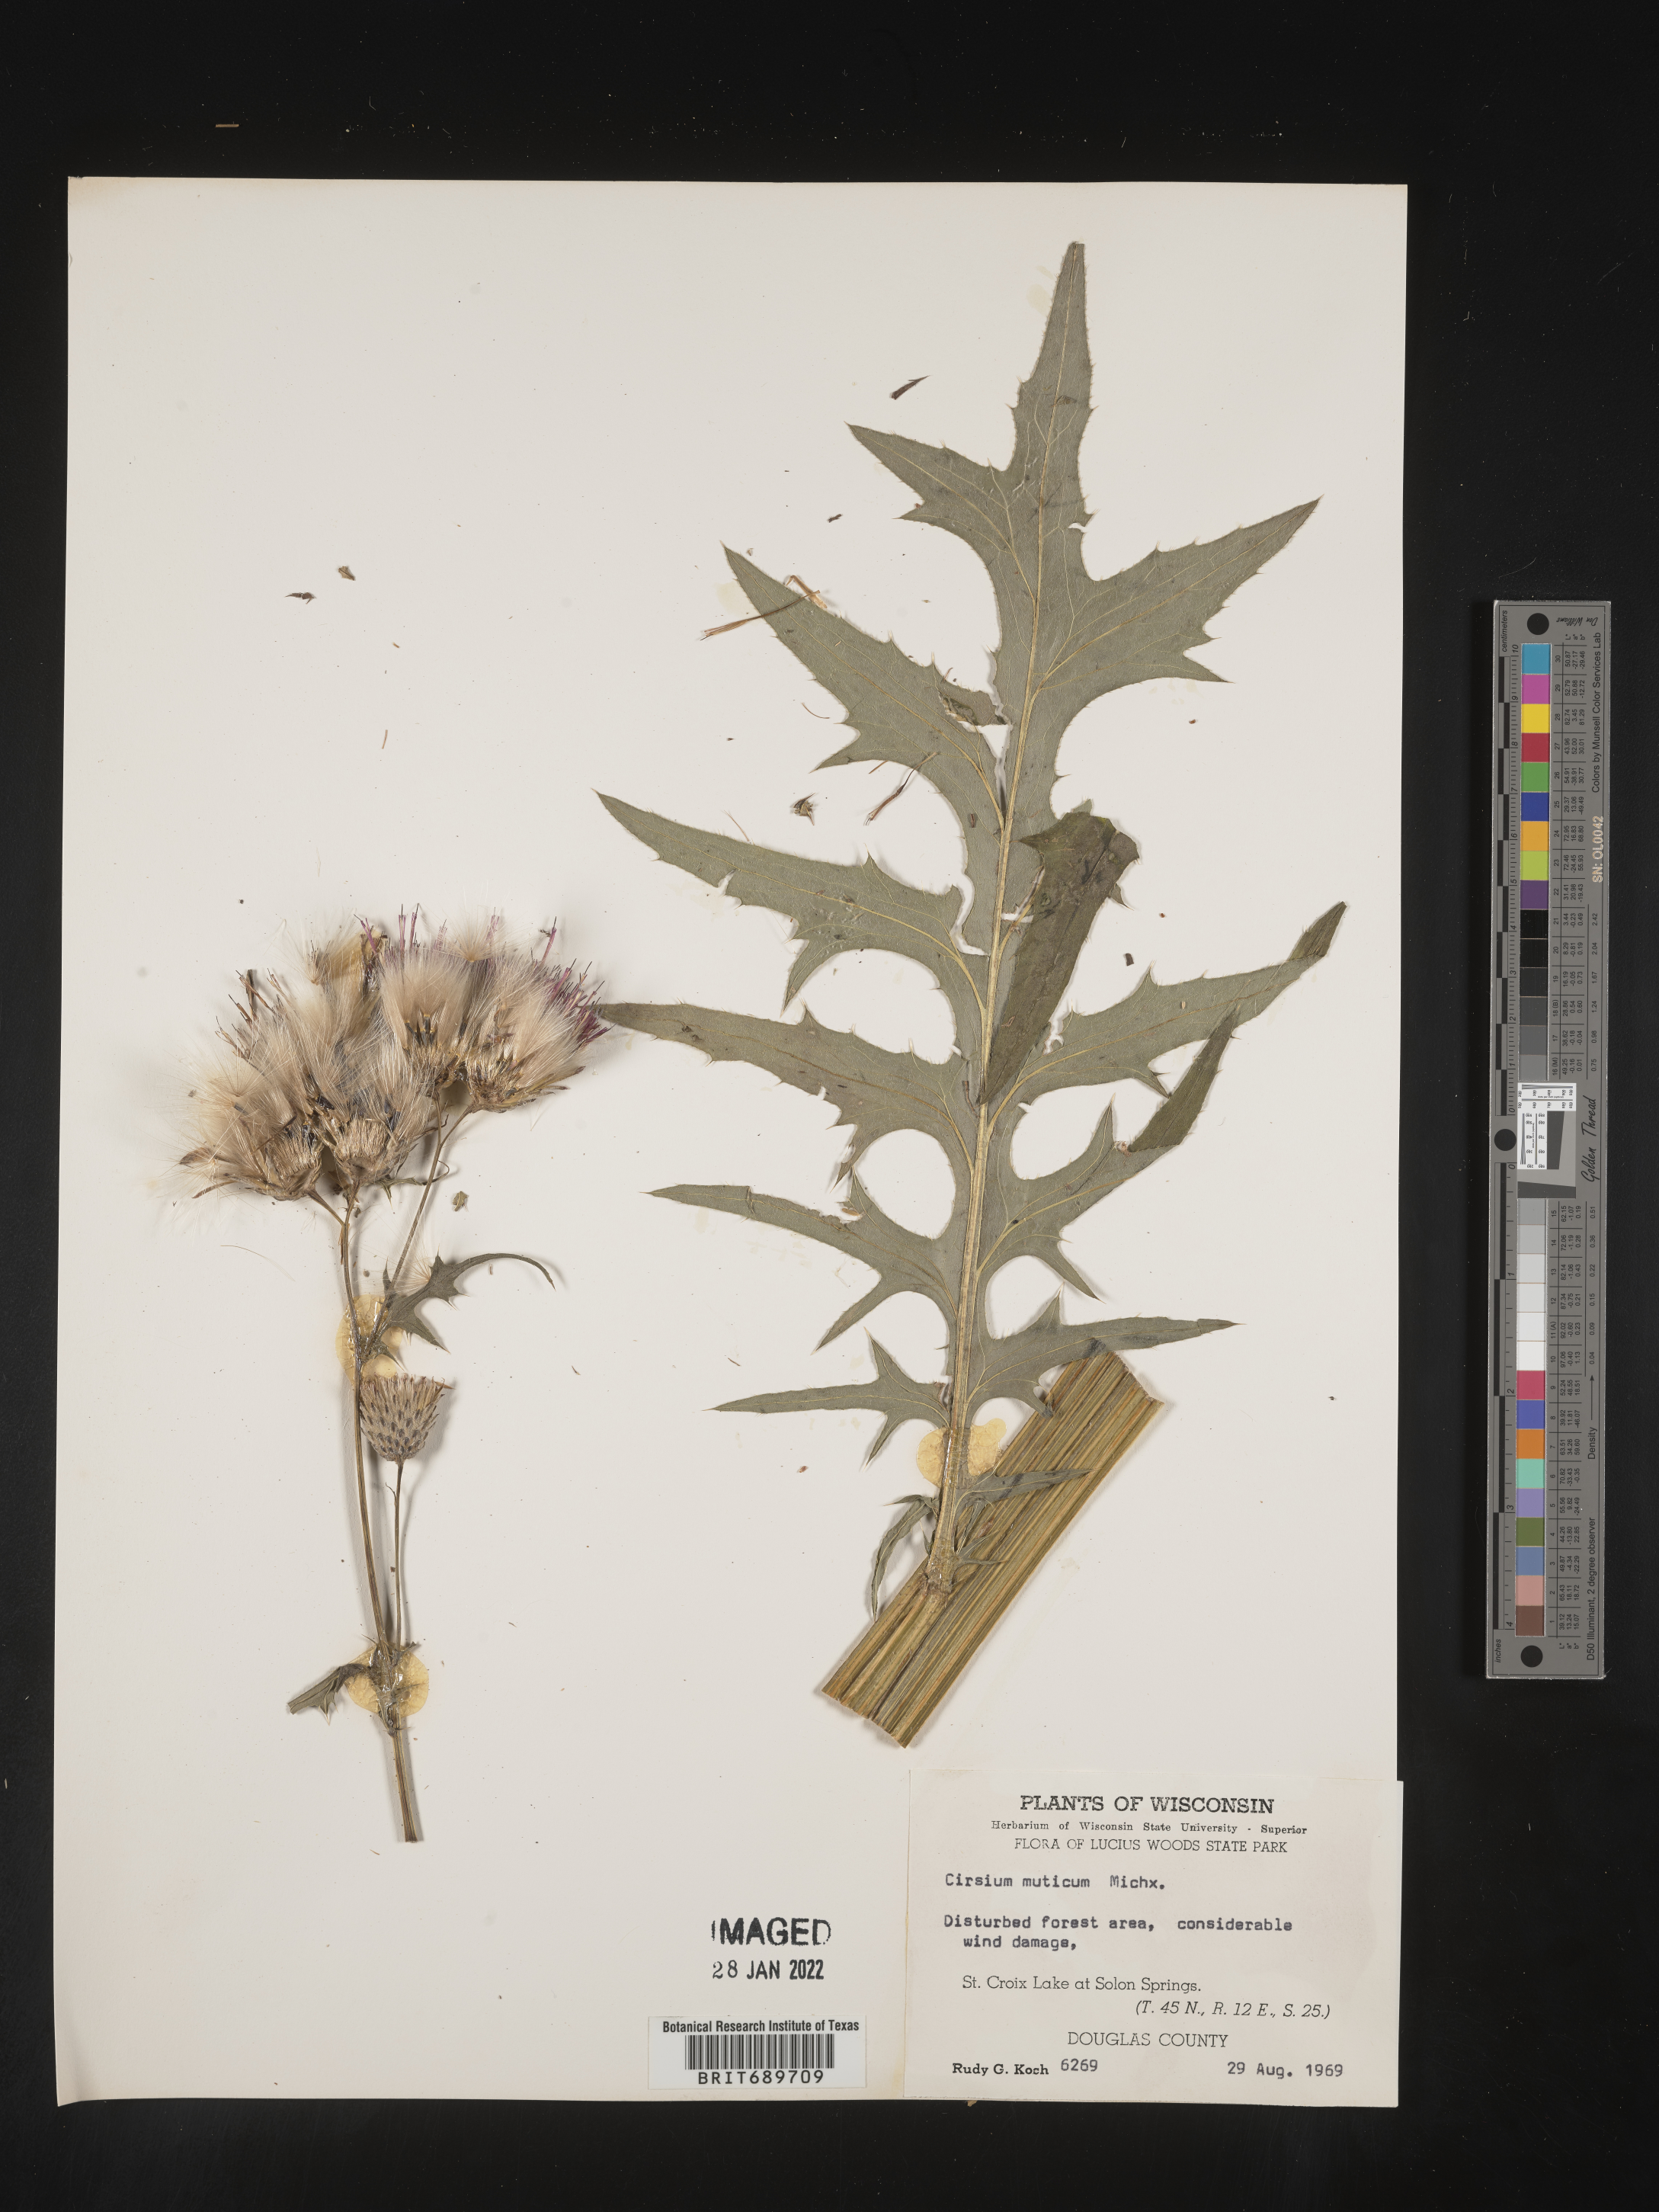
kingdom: Plantae
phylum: Tracheophyta
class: Magnoliopsida
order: Asterales
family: Asteraceae
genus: Cirsium
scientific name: Cirsium muticum
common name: Dunce-nettle
